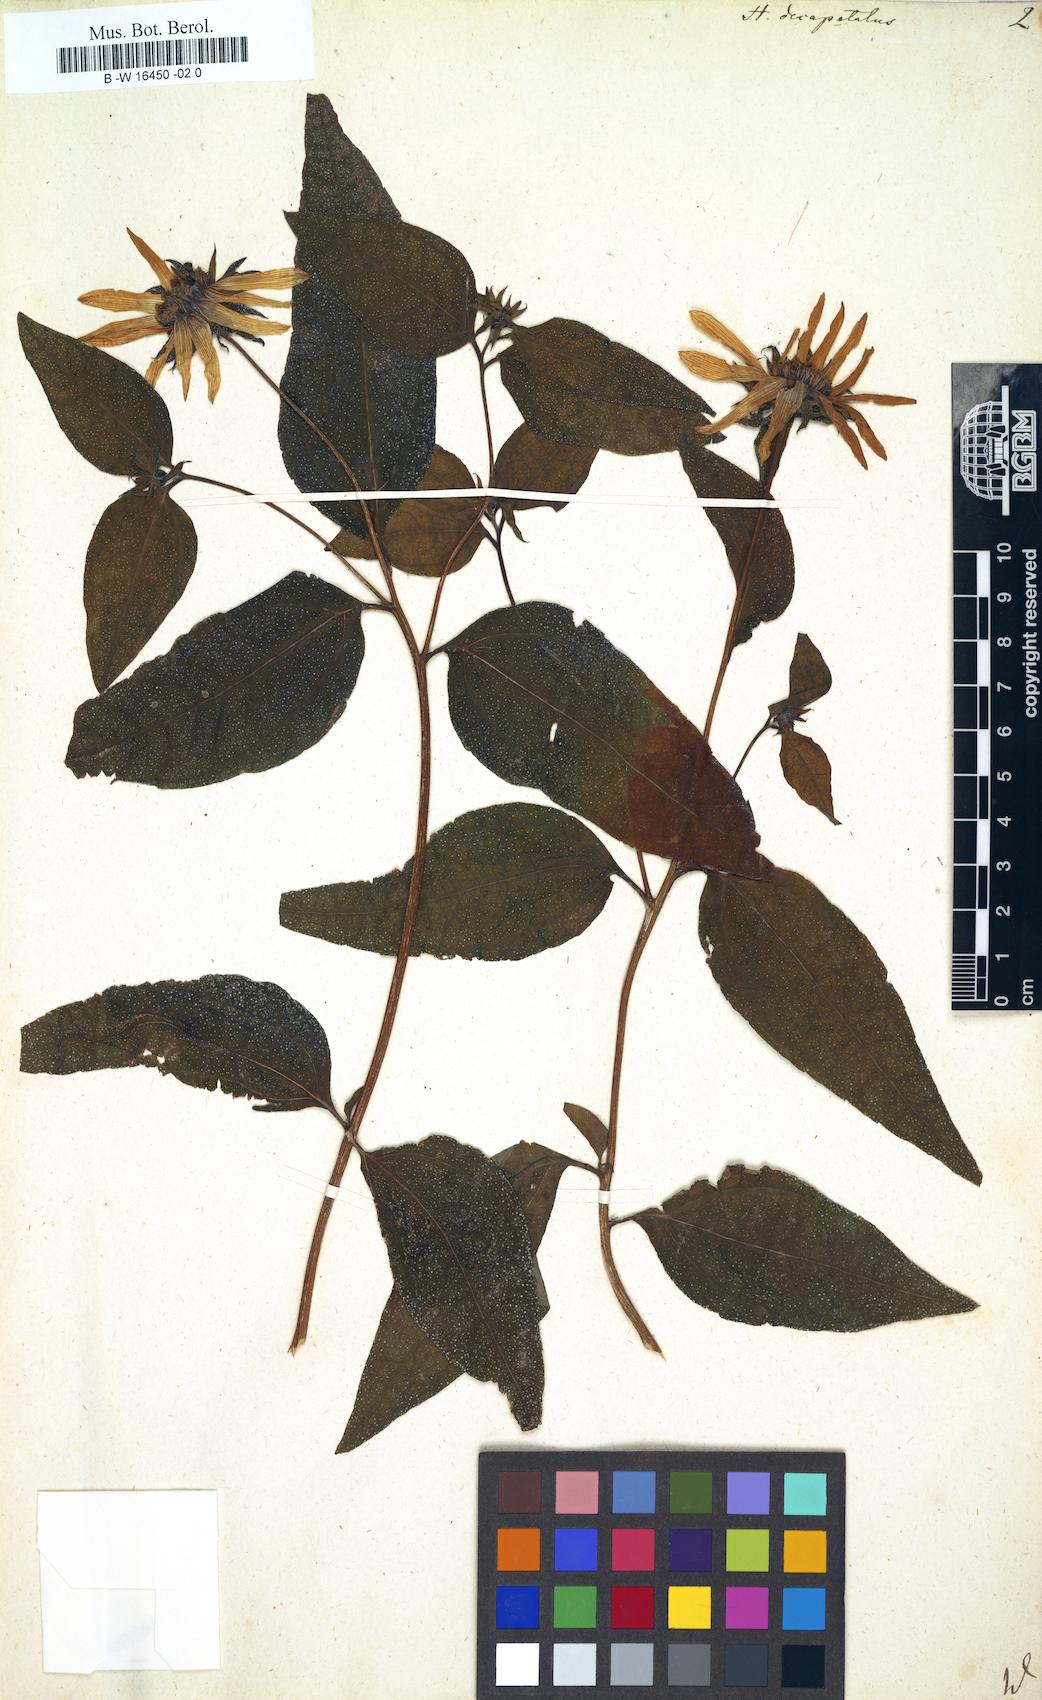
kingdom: Plantae
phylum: Tracheophyta
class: Magnoliopsida
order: Asterales
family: Asteraceae
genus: Helianthus
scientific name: Helianthus strumosus
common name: Pale-leaved sunflower
